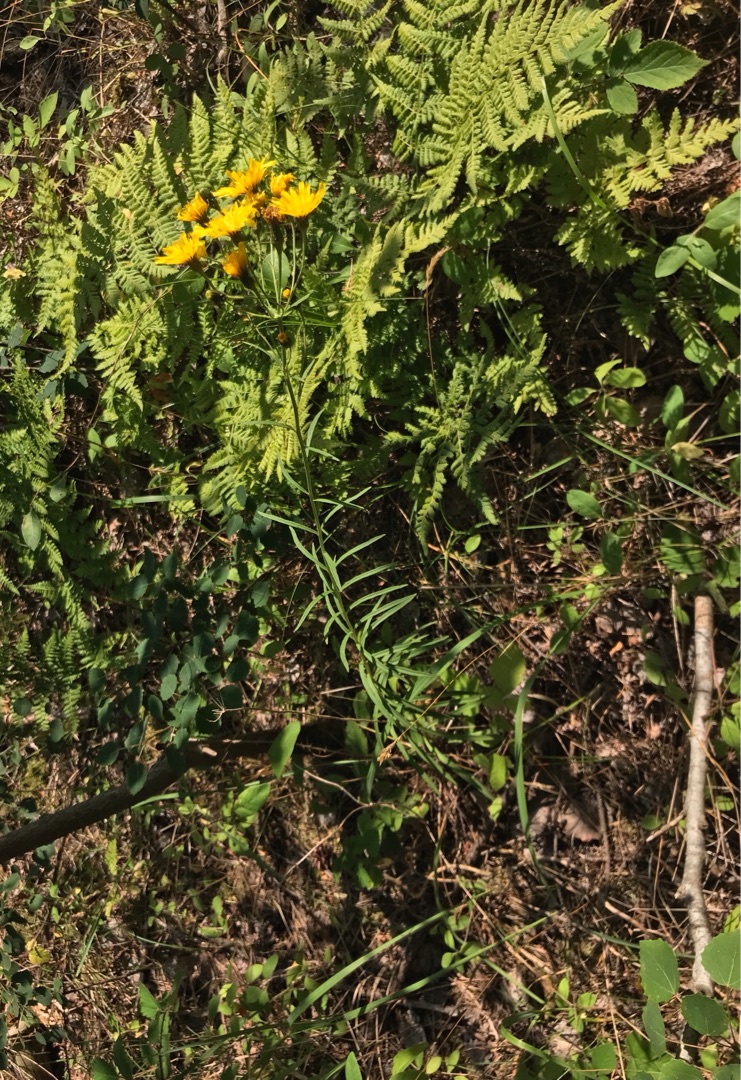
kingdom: Plantae
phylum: Tracheophyta
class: Magnoliopsida
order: Asterales
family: Asteraceae
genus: Hieracium
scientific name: Hieracium umbellatum
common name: Smalbladet høgeurt
